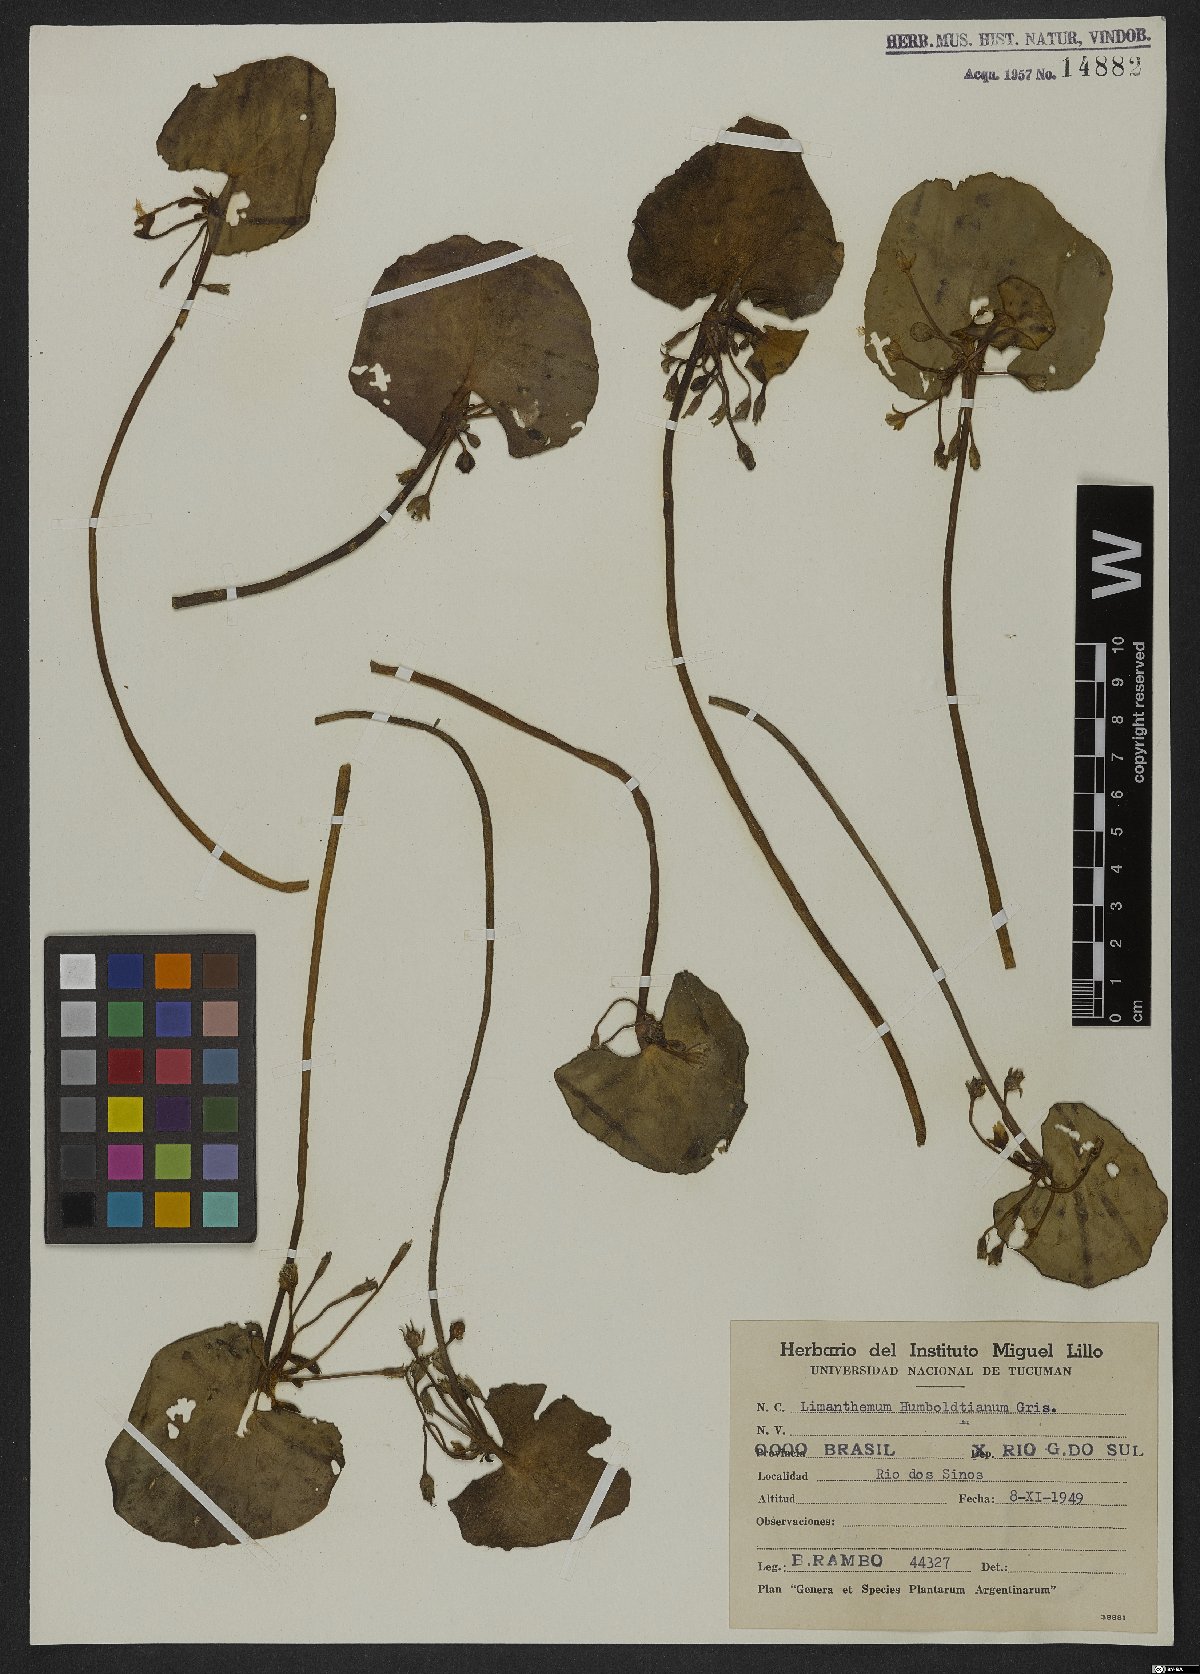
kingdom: Plantae
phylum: Tracheophyta
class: Magnoliopsida
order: Asterales
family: Menyanthaceae
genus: Nymphoides
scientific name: Nymphoides humboldtiana
